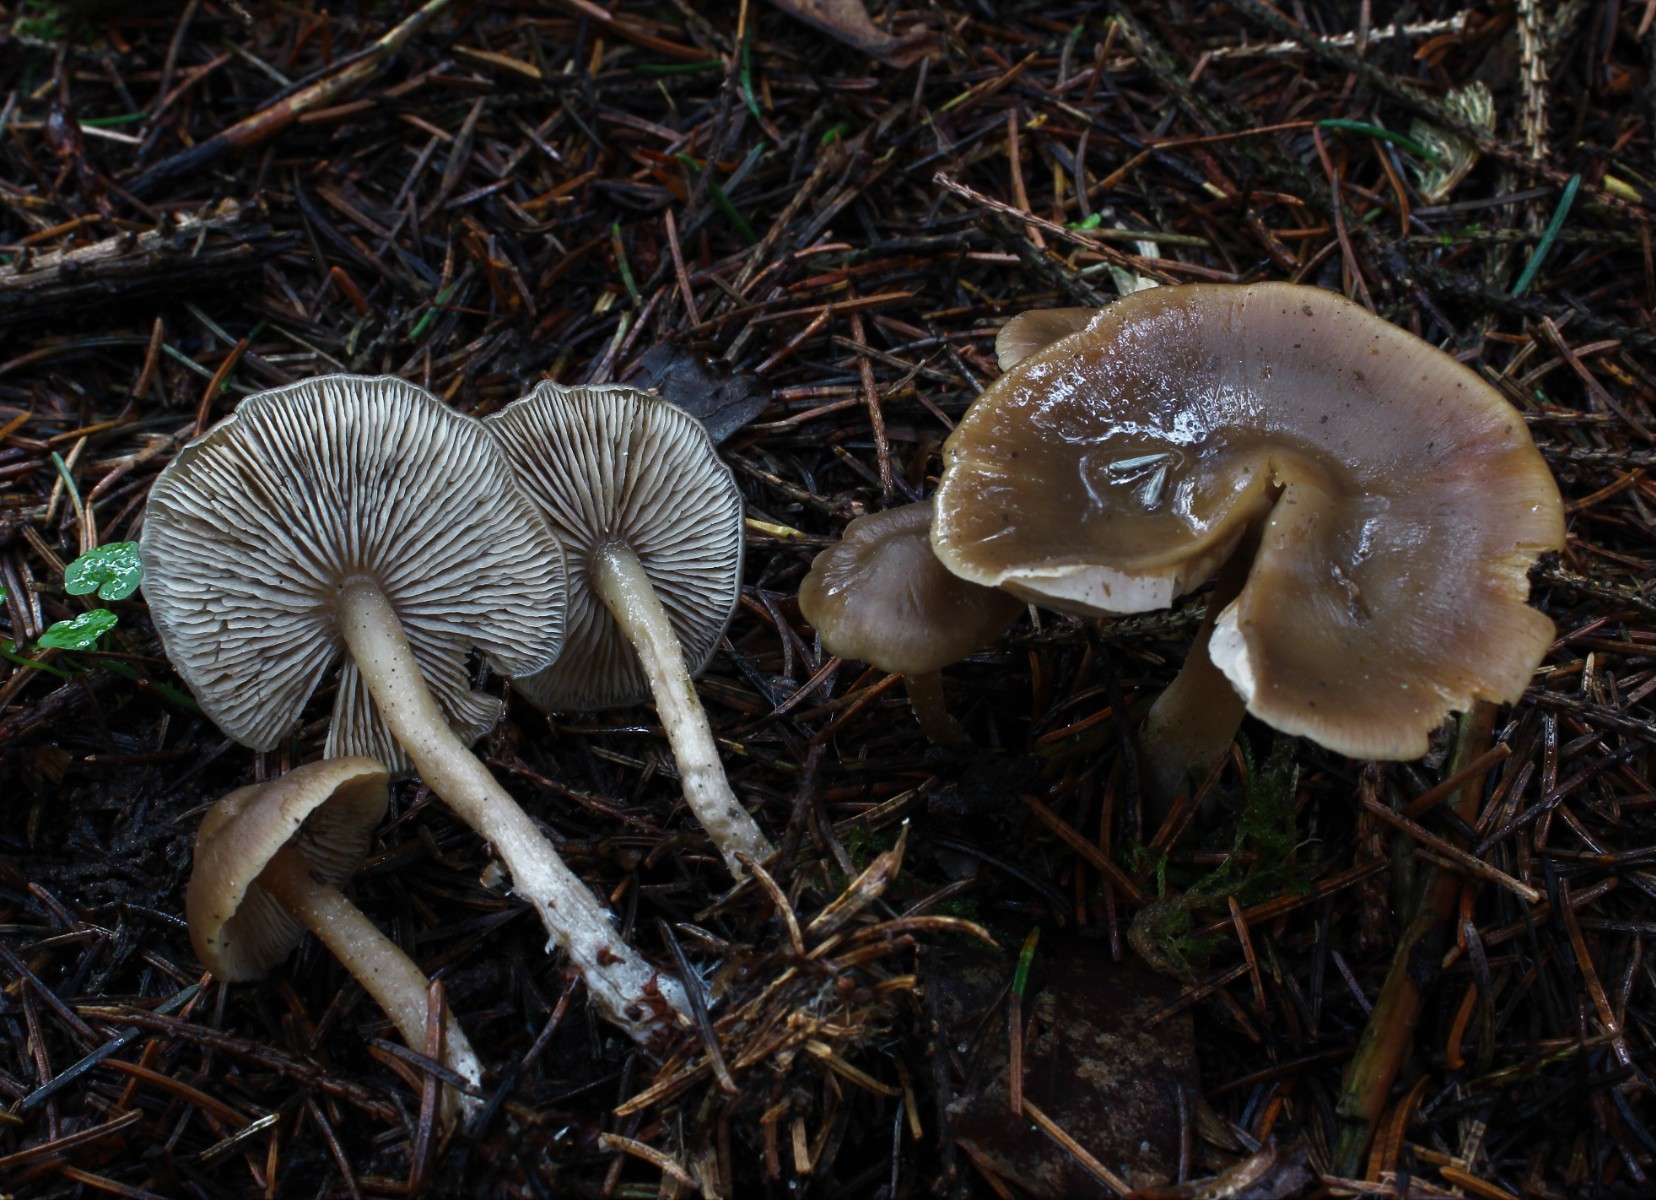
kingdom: Fungi
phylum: Basidiomycota
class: Agaricomycetes
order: Agaricales
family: Lyophyllaceae
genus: Myochromella
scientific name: Myochromella boudieri
